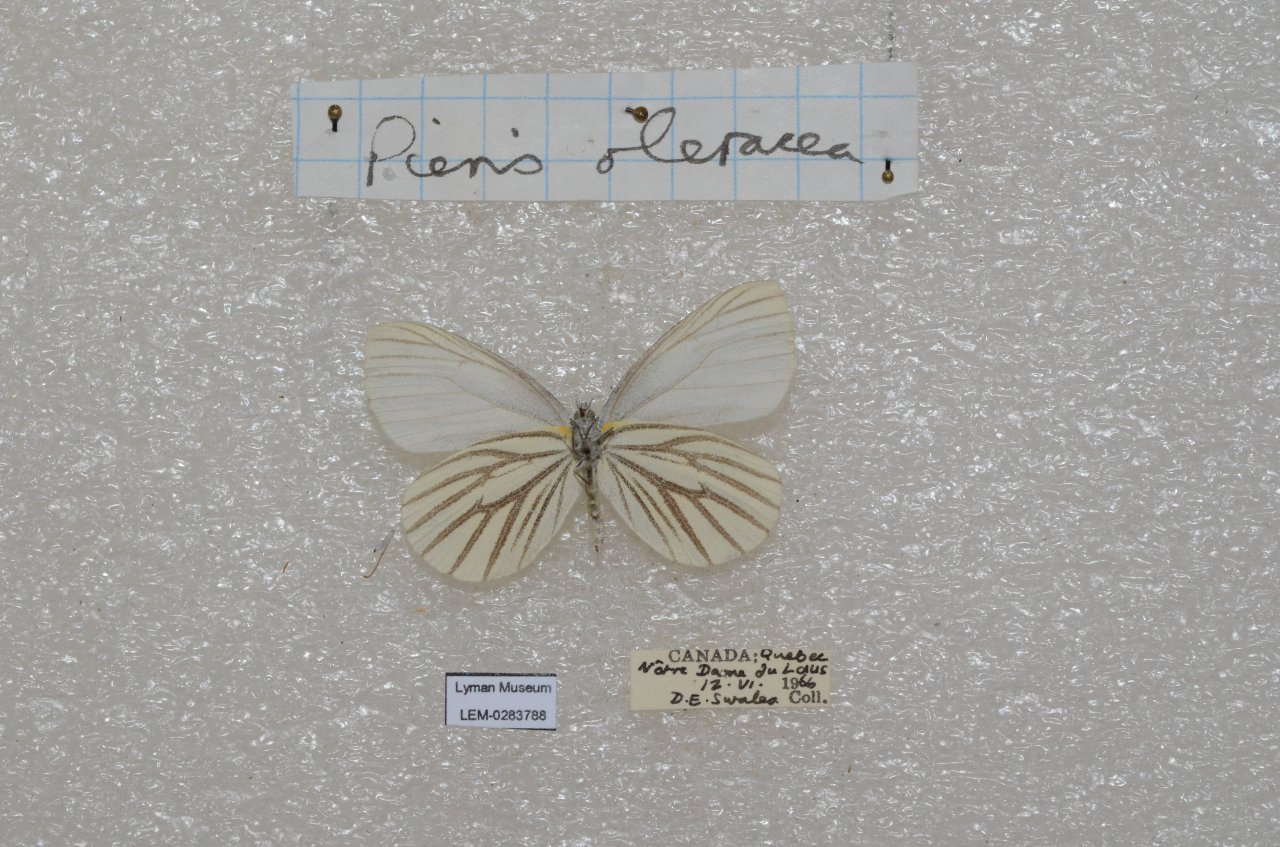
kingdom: Animalia
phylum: Arthropoda
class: Insecta
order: Lepidoptera
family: Pieridae
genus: Pieris
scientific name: Pieris oleracea
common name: Mustard White
